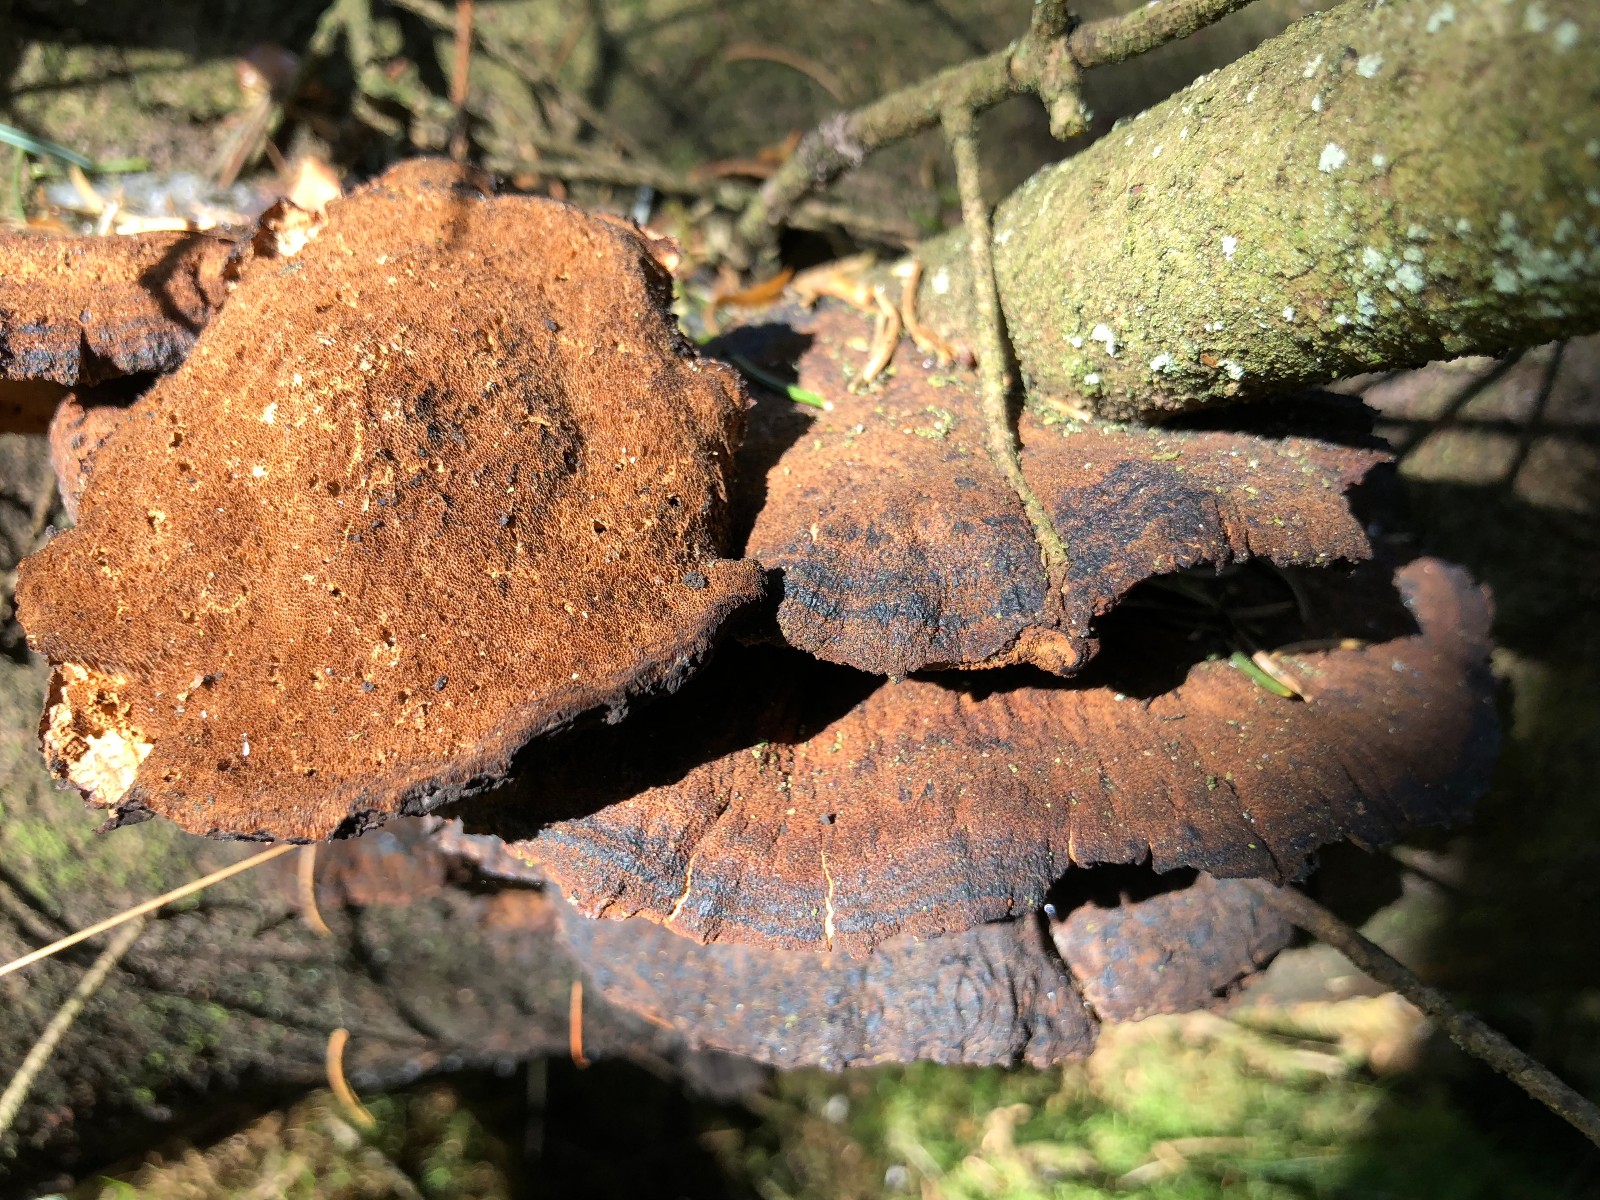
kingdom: Fungi
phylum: Basidiomycota
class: Agaricomycetes
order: Polyporales
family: Ischnodermataceae
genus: Ischnoderma
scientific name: Ischnoderma benzoinum
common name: gran-tjæreporesvamp
